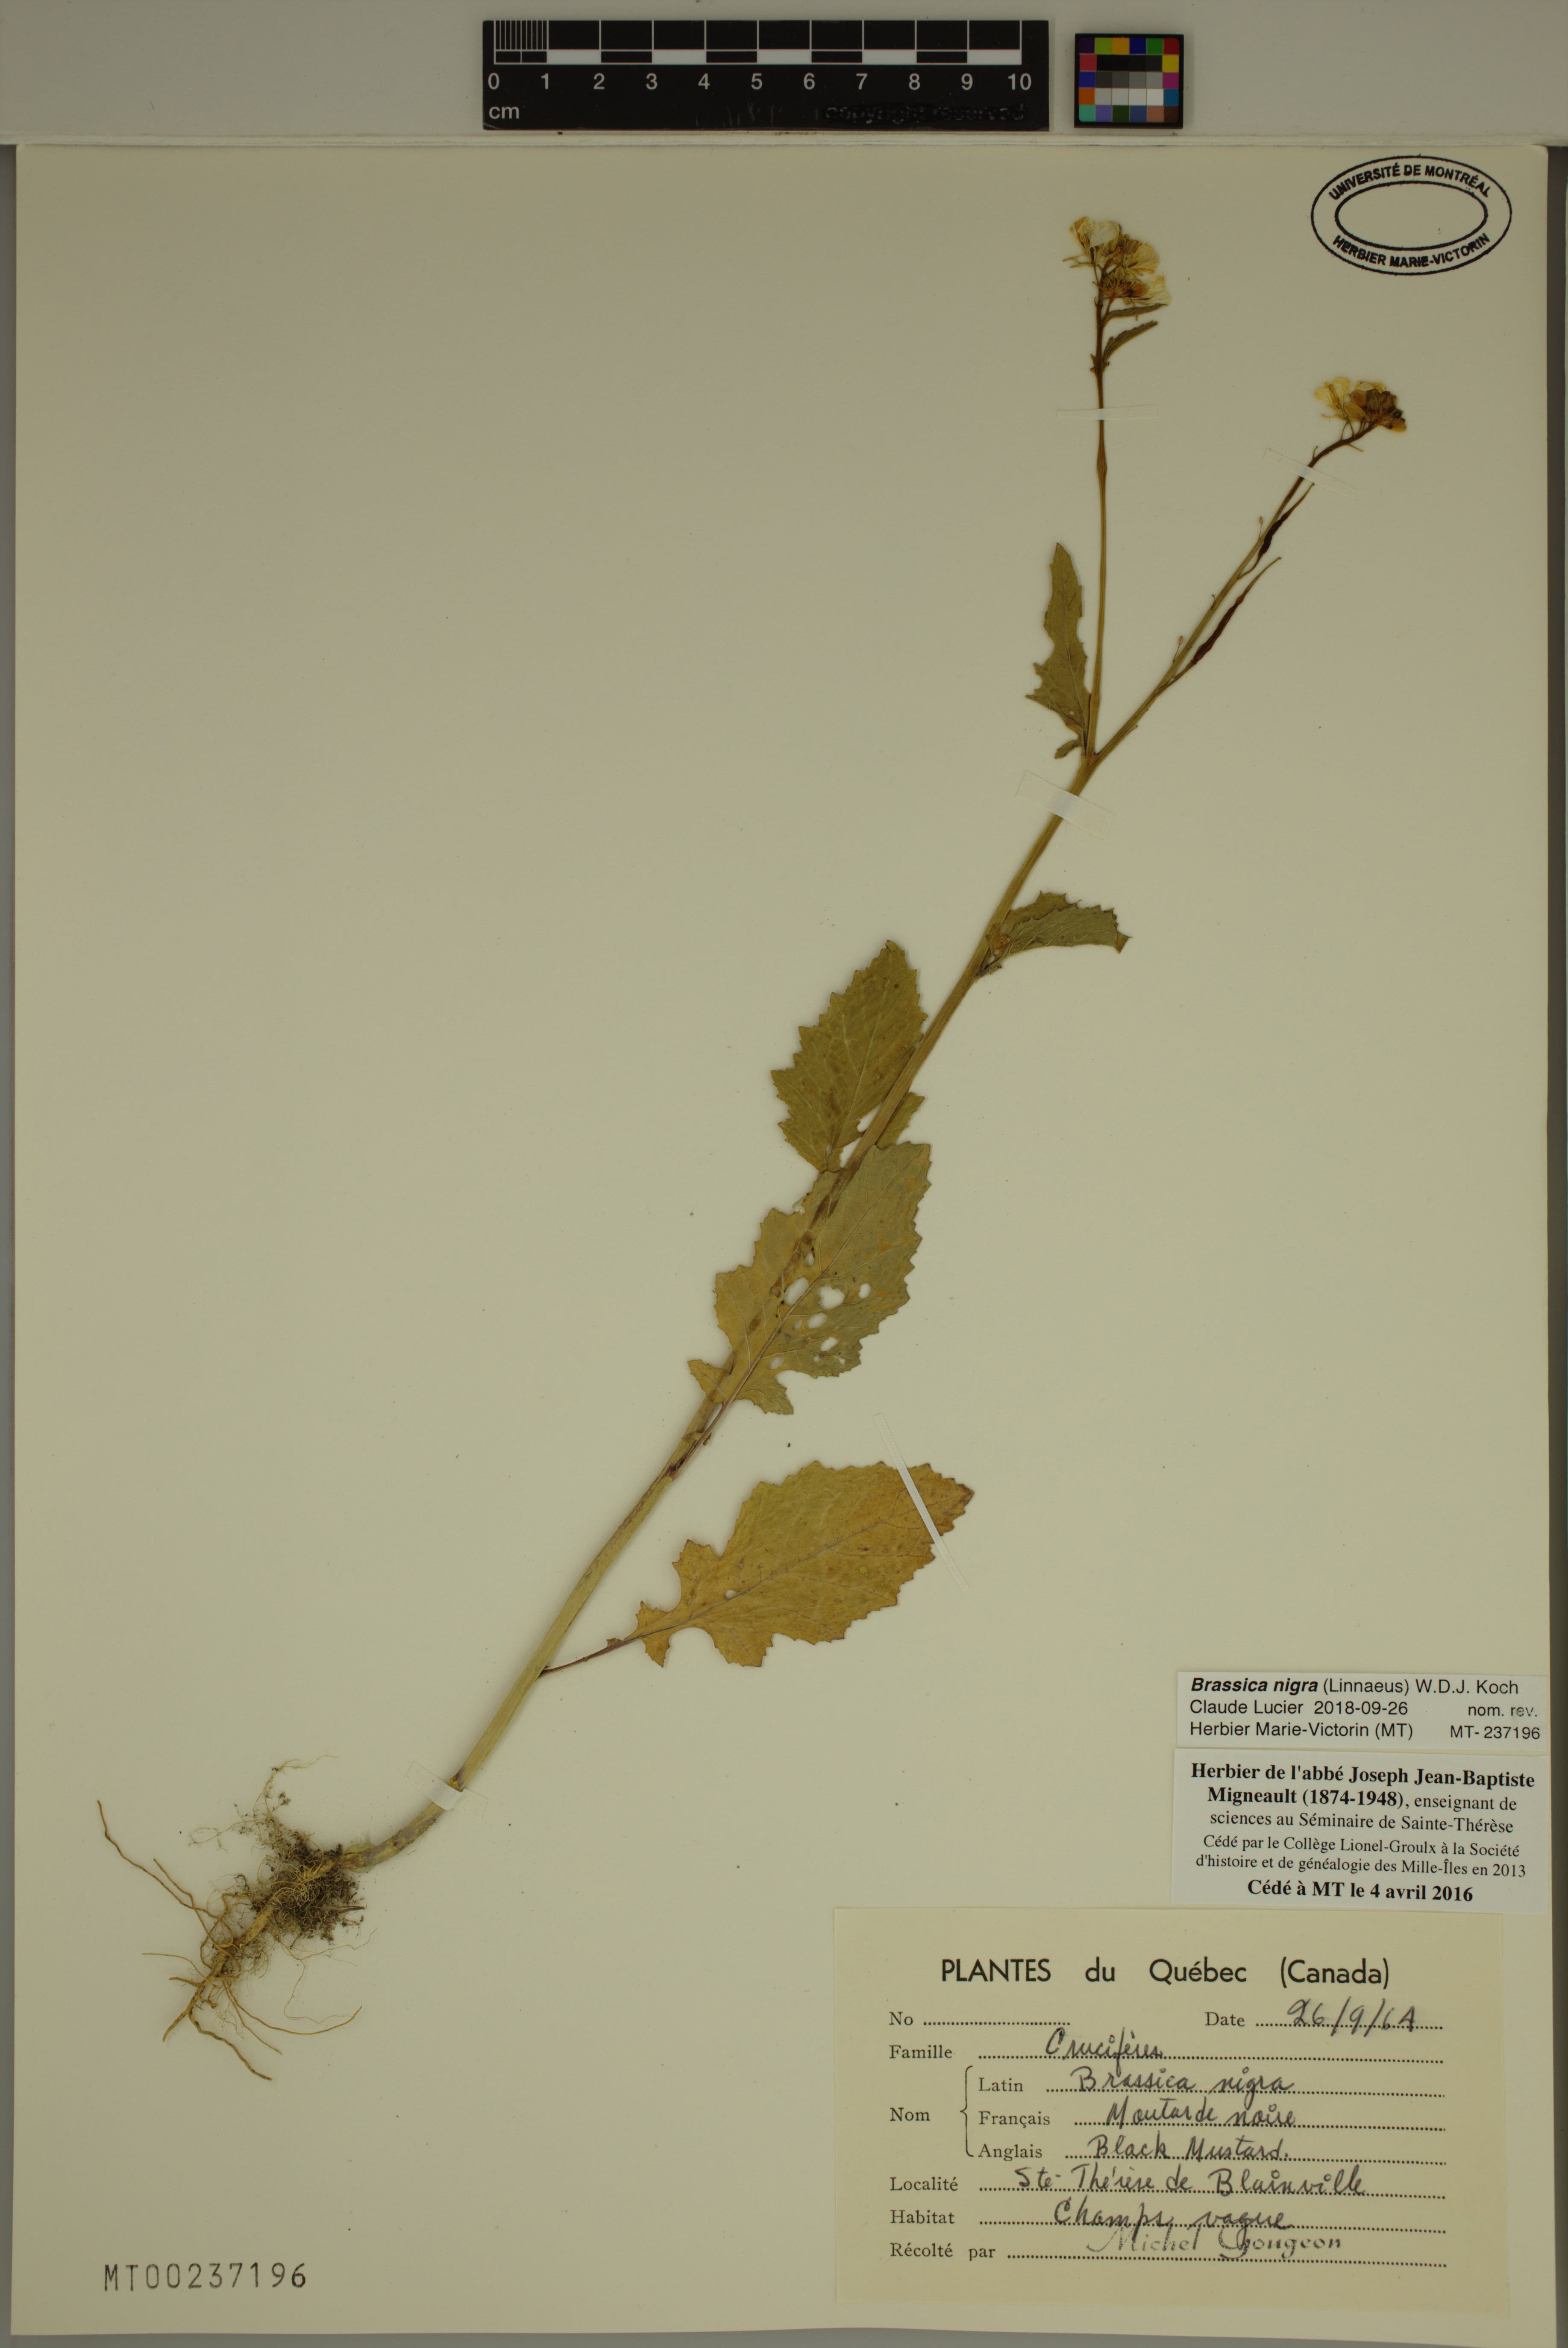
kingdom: Plantae
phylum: Tracheophyta
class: Magnoliopsida
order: Brassicales
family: Brassicaceae
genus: Brassica
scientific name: Brassica nigra
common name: Black mustard
